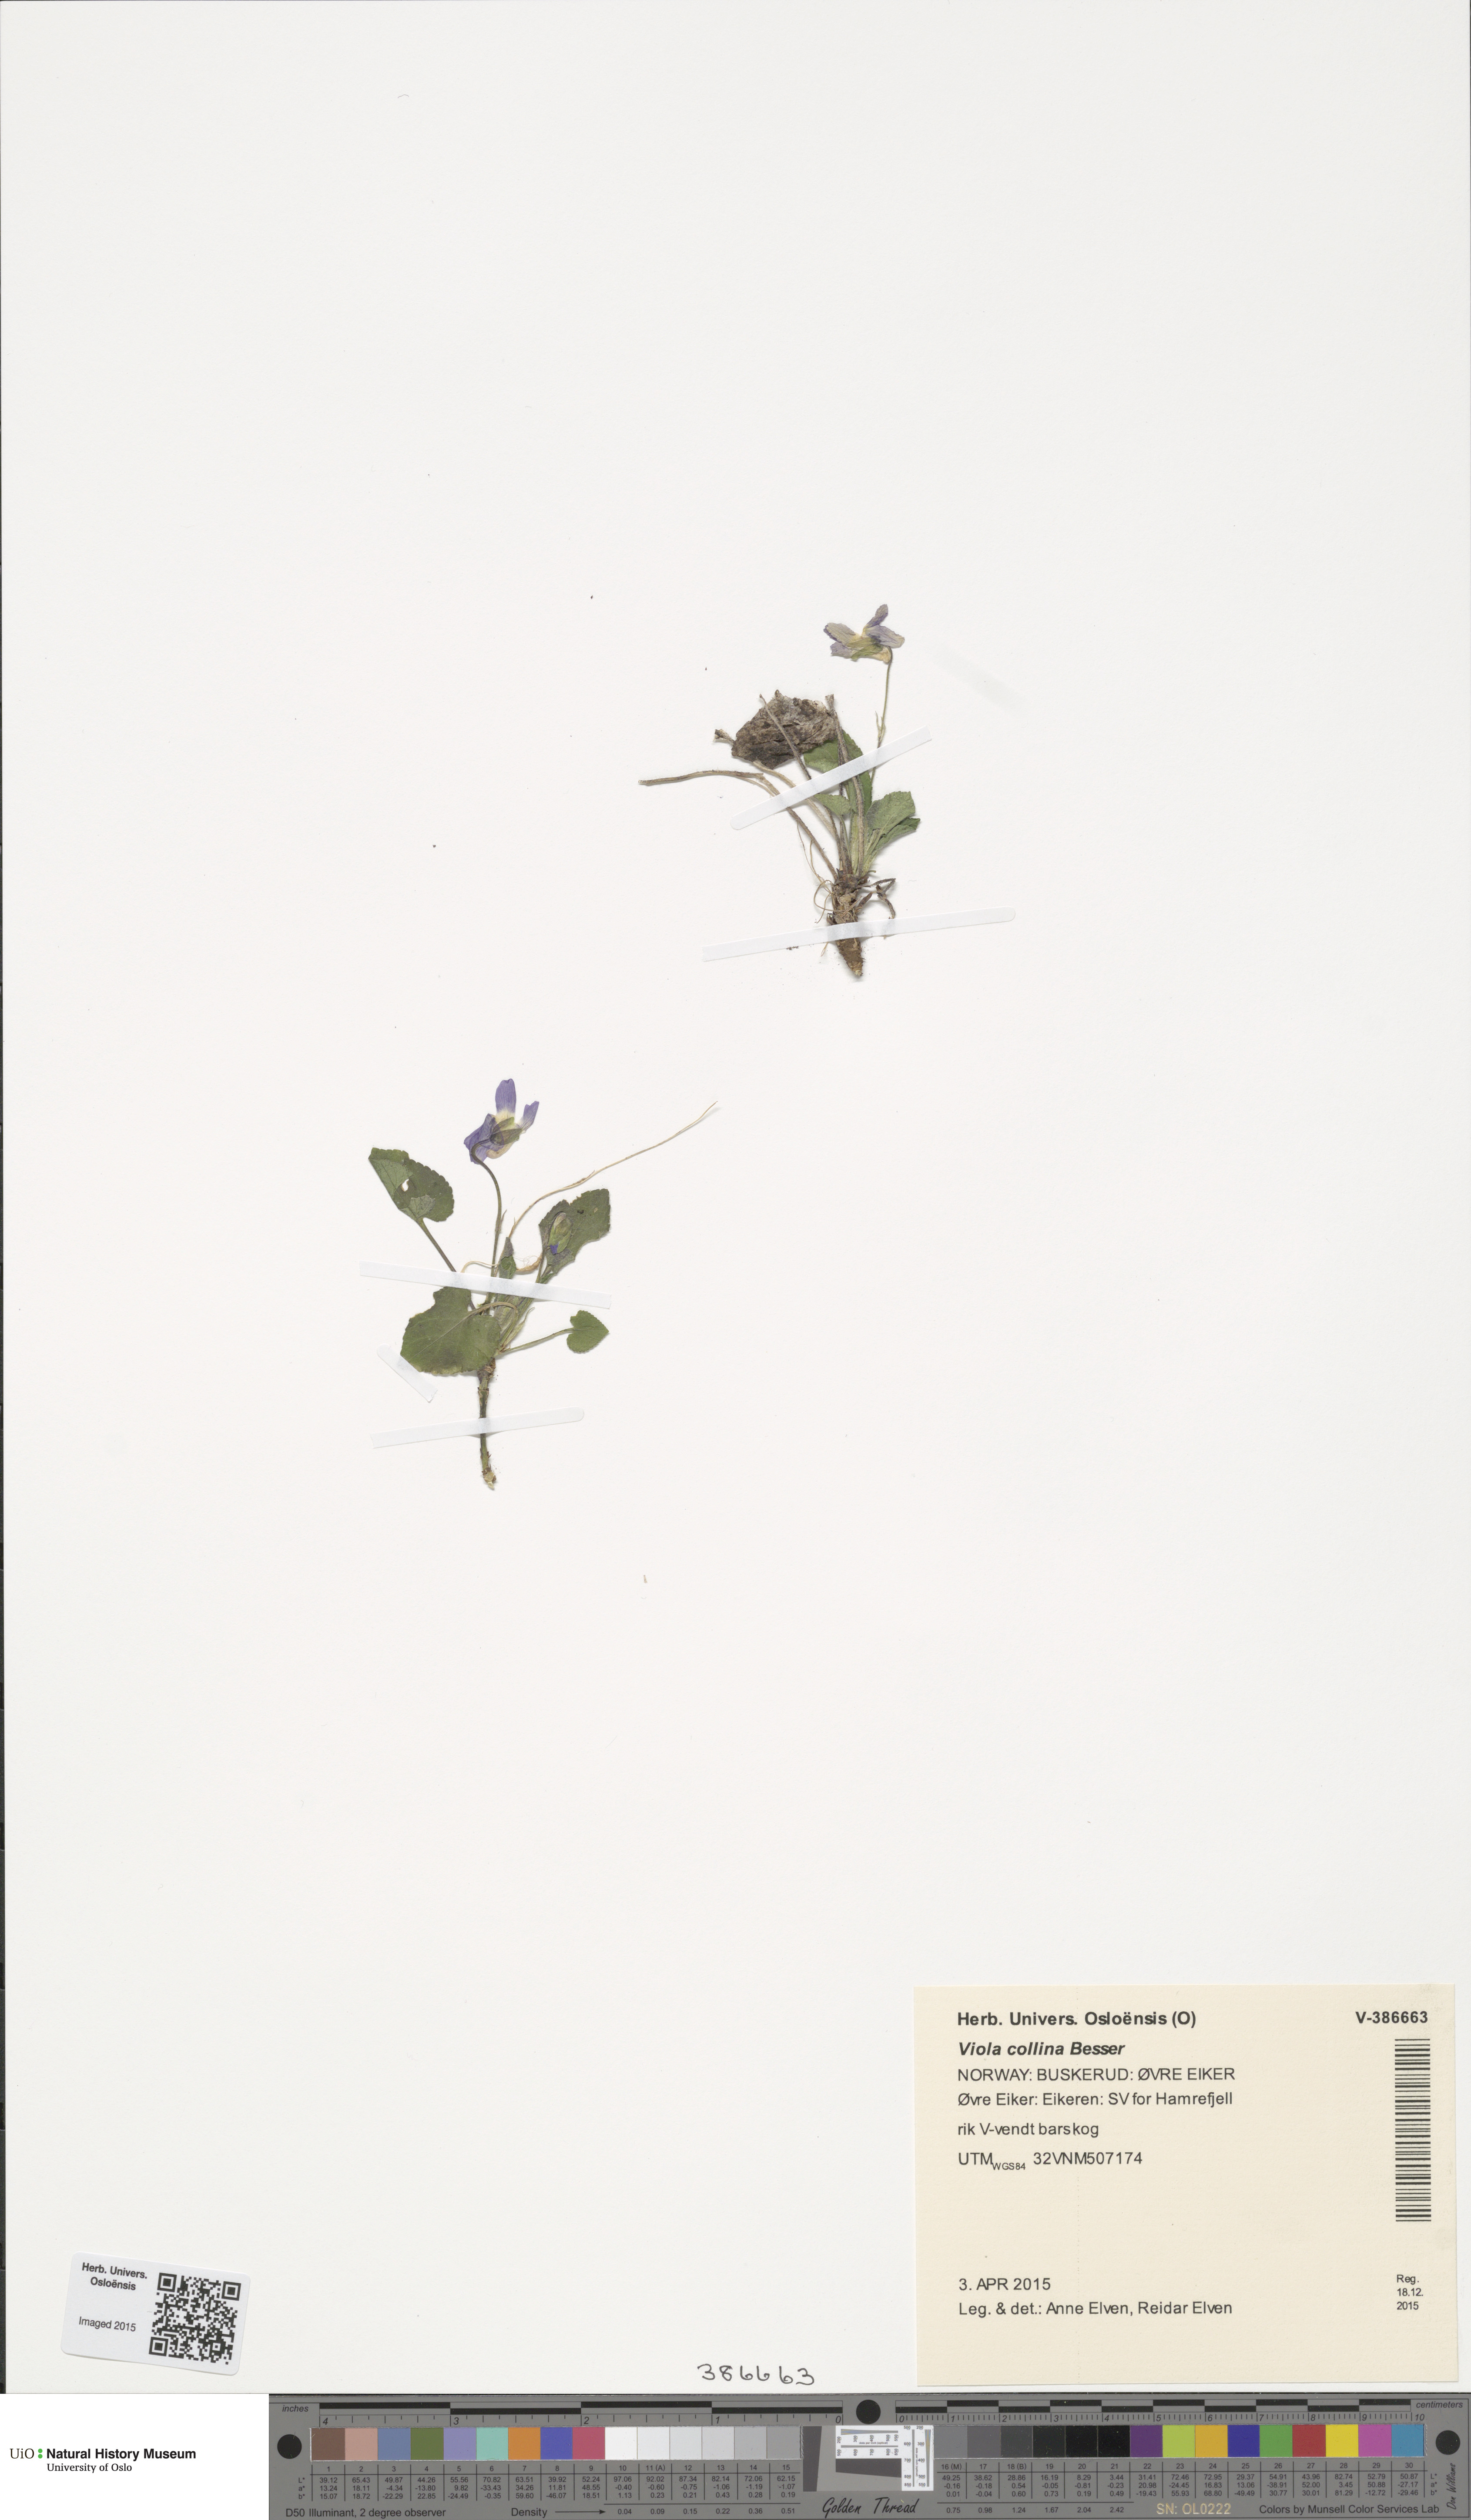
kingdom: Plantae
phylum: Tracheophyta
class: Magnoliopsida
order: Malpighiales
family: Violaceae
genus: Viola
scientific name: Viola collina
